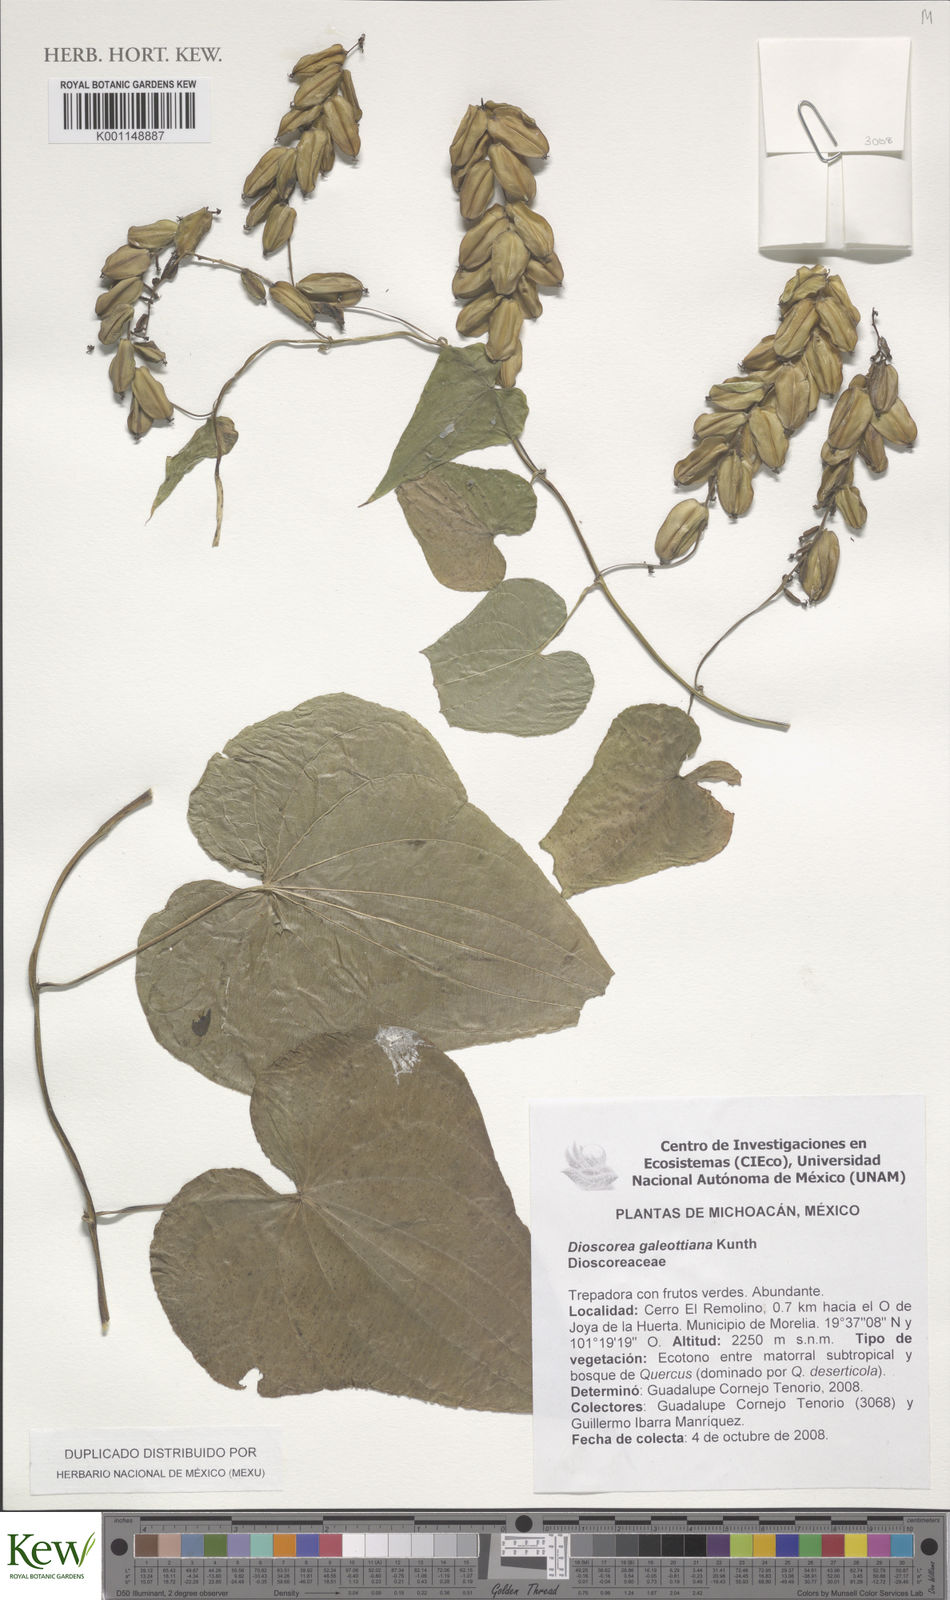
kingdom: Plantae
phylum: Tracheophyta
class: Liliopsida
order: Dioscoreales
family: Dioscoreaceae
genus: Dioscorea
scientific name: Dioscorea galeottiana
